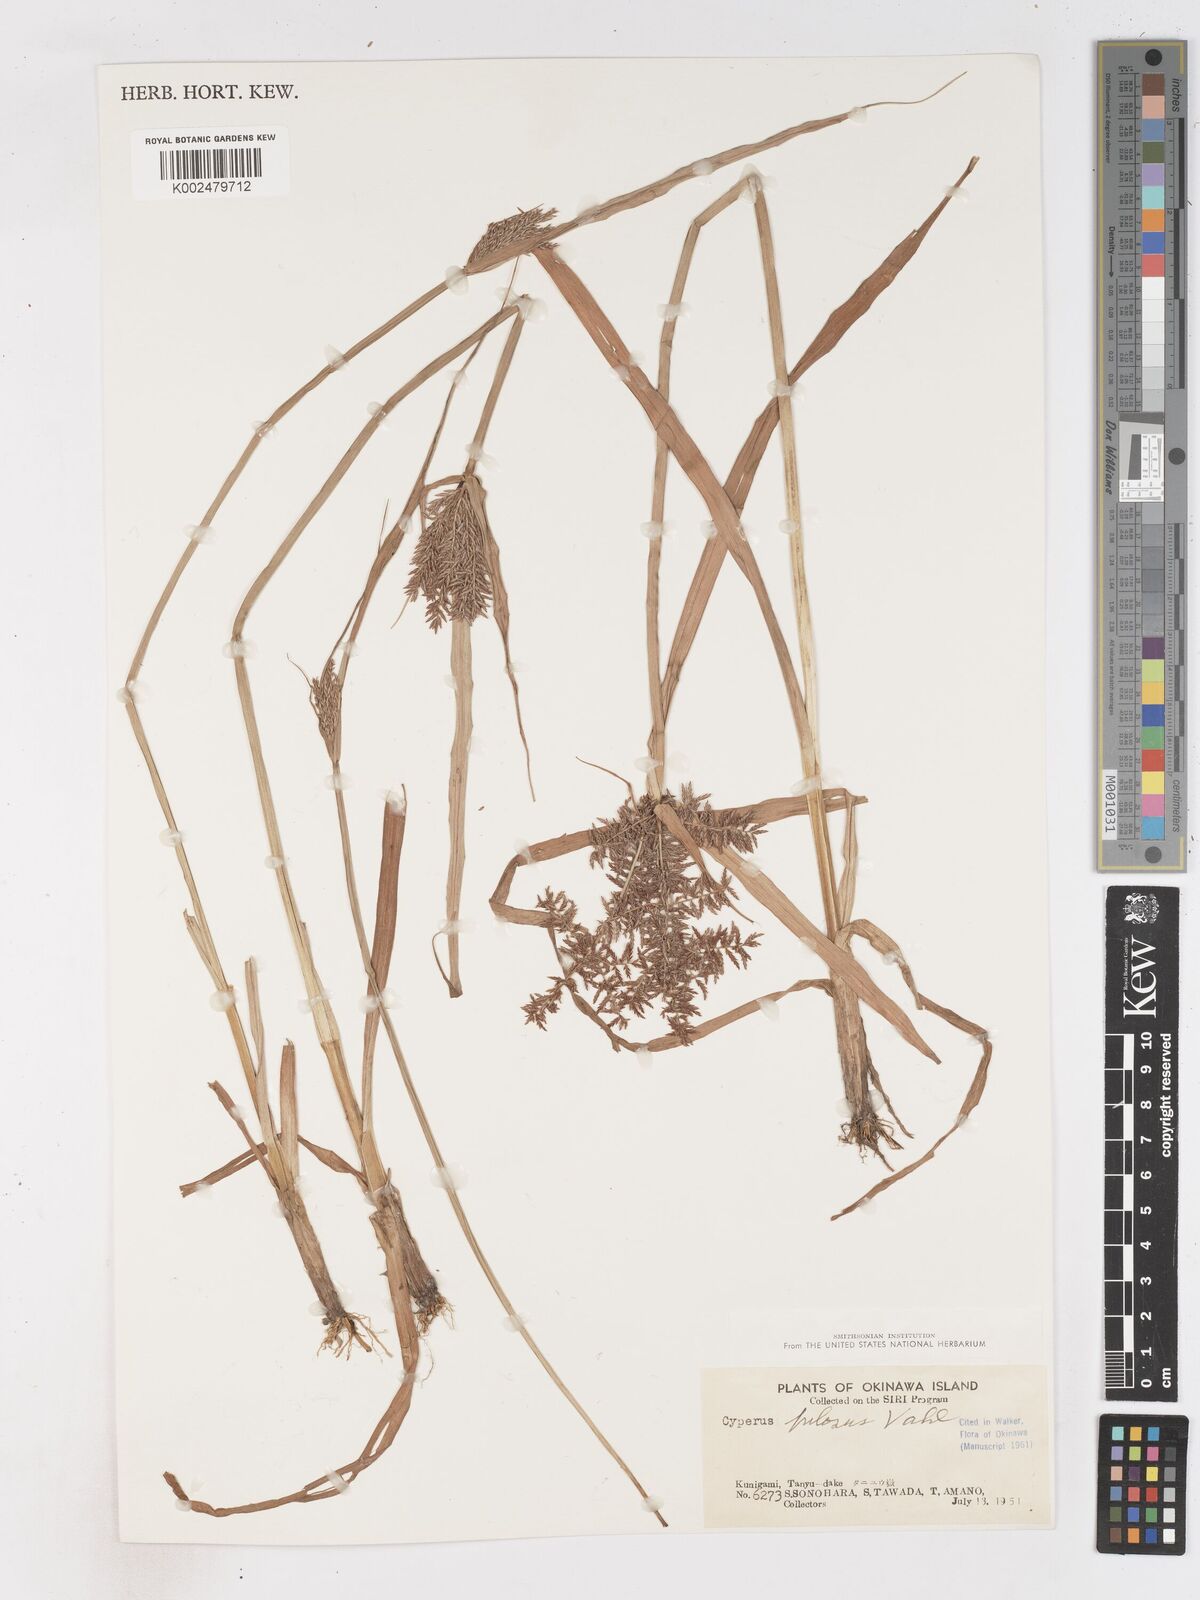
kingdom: Plantae
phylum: Tracheophyta
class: Liliopsida
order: Poales
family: Cyperaceae
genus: Cyperus
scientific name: Cyperus pilosus
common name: Fuzzy flatsedge
